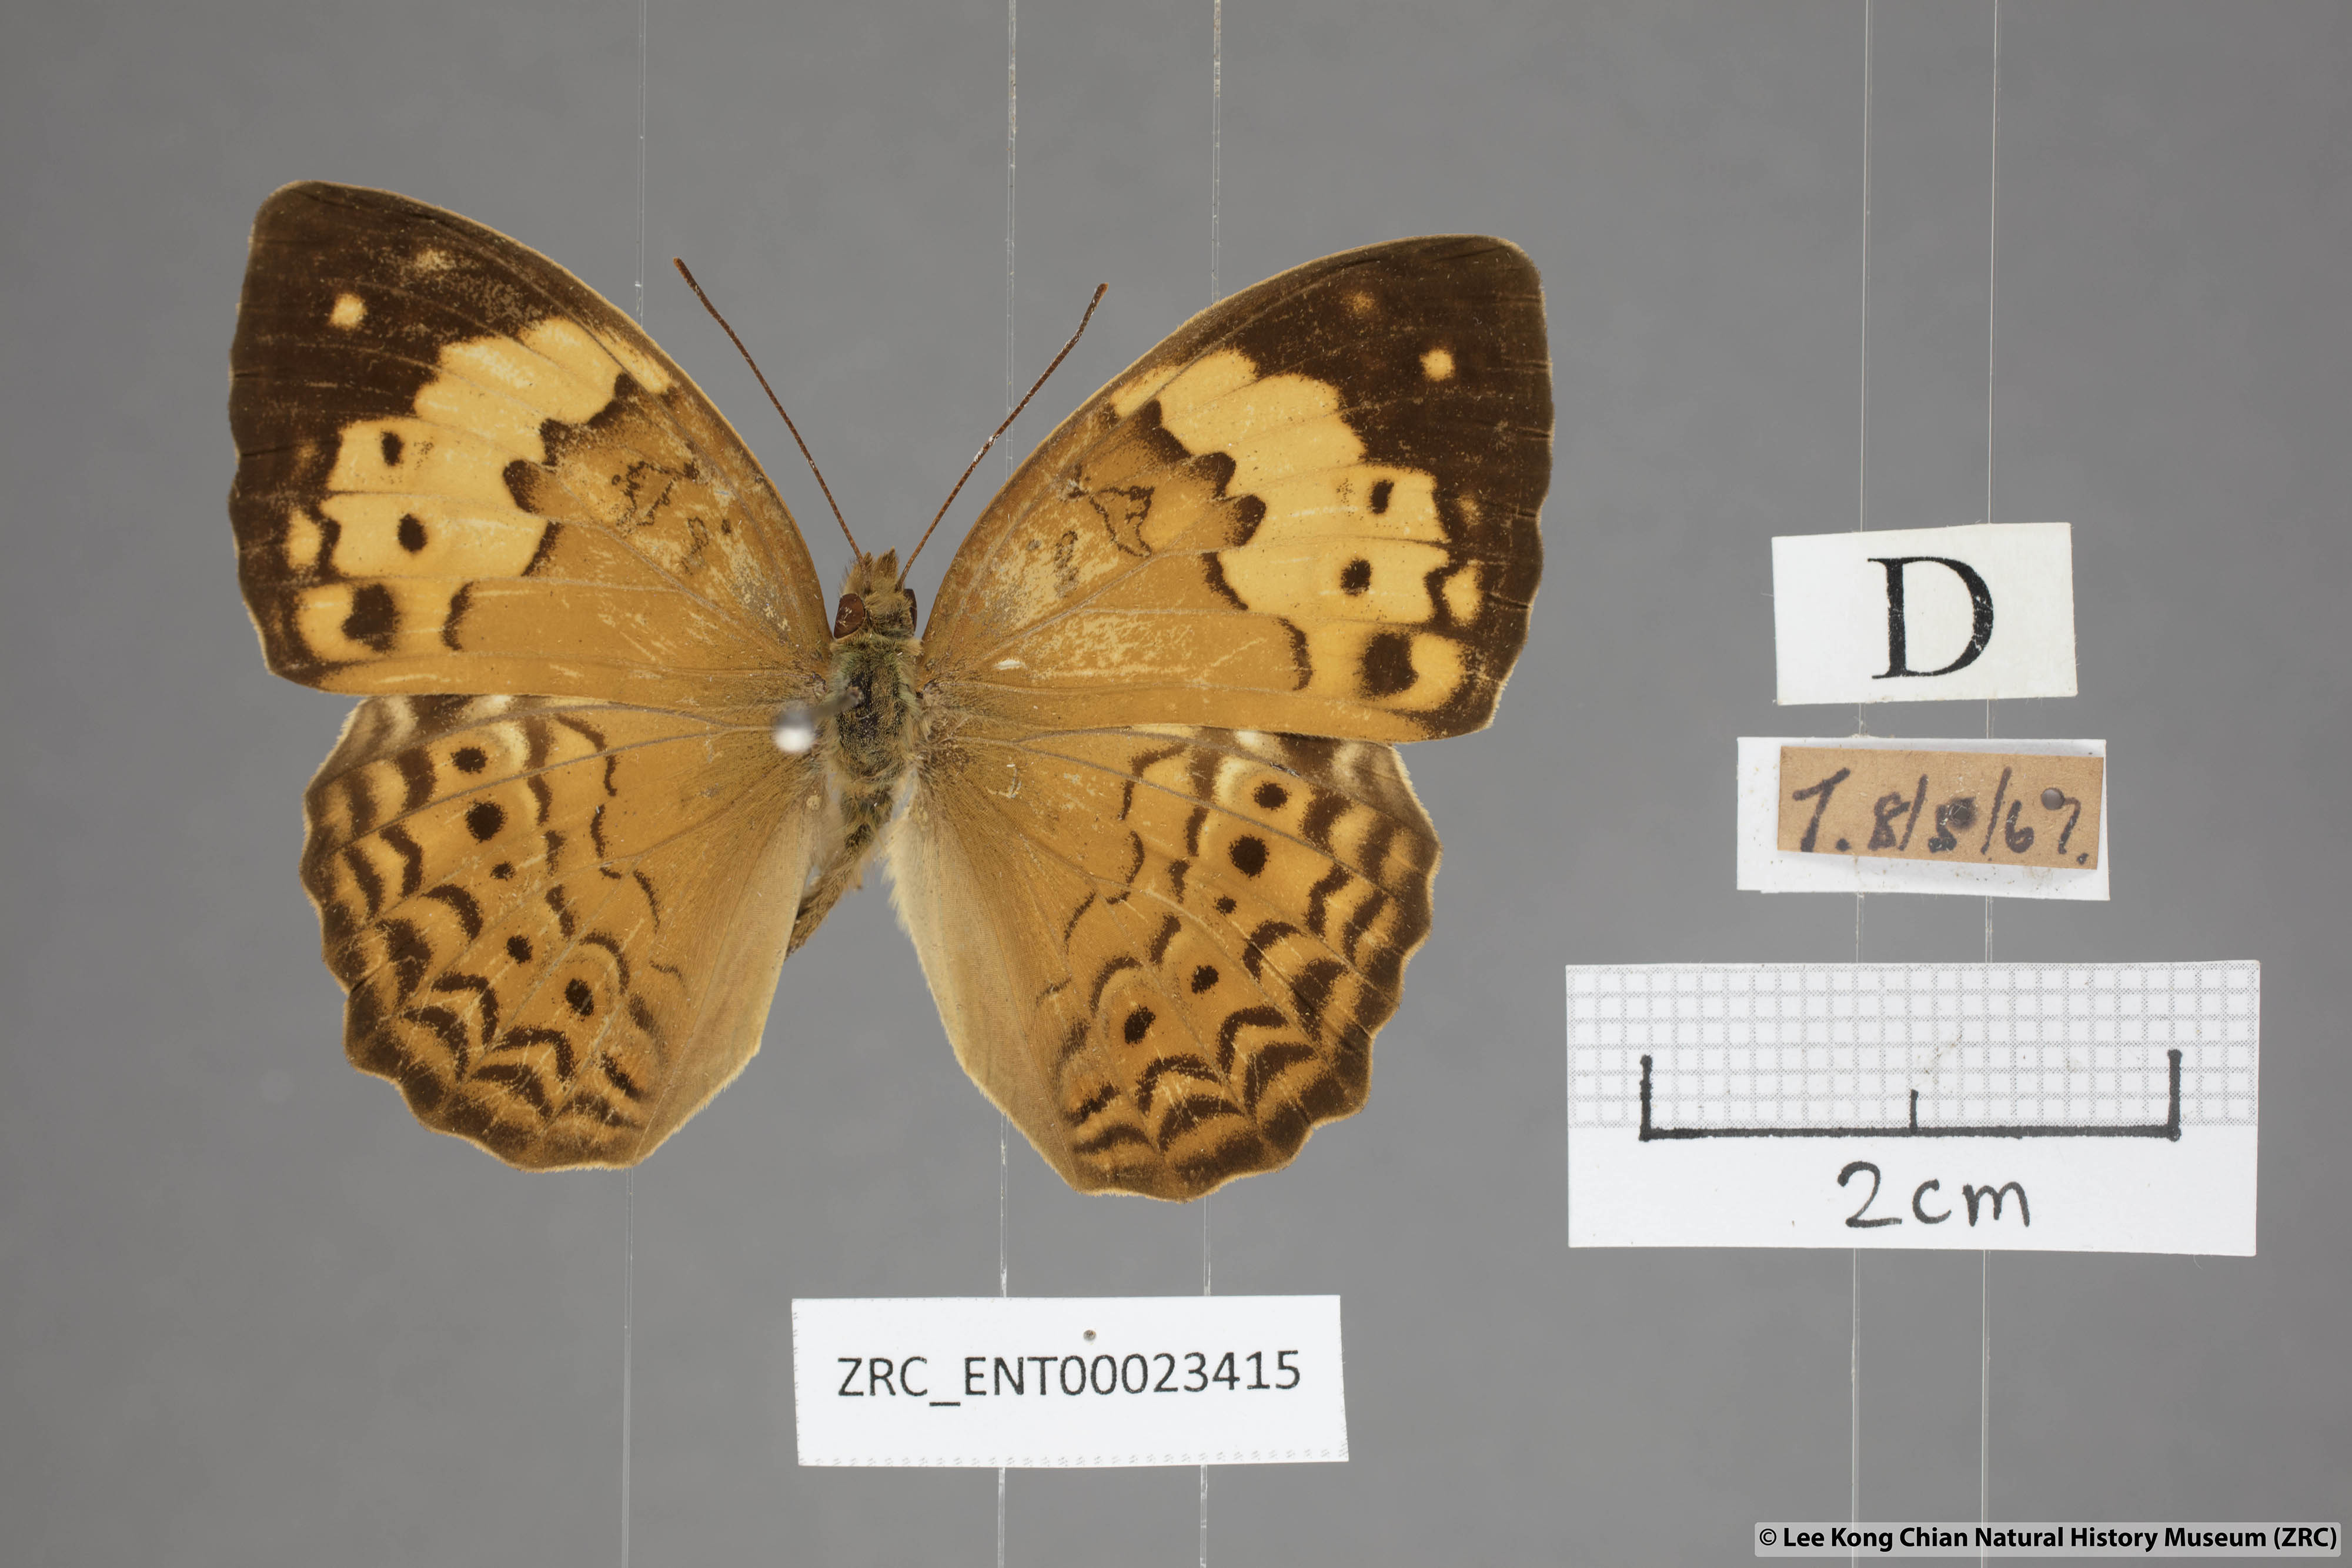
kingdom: Animalia
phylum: Arthropoda
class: Insecta
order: Lepidoptera
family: Nymphalidae
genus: Cupha
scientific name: Cupha erymanthis
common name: Rustic
